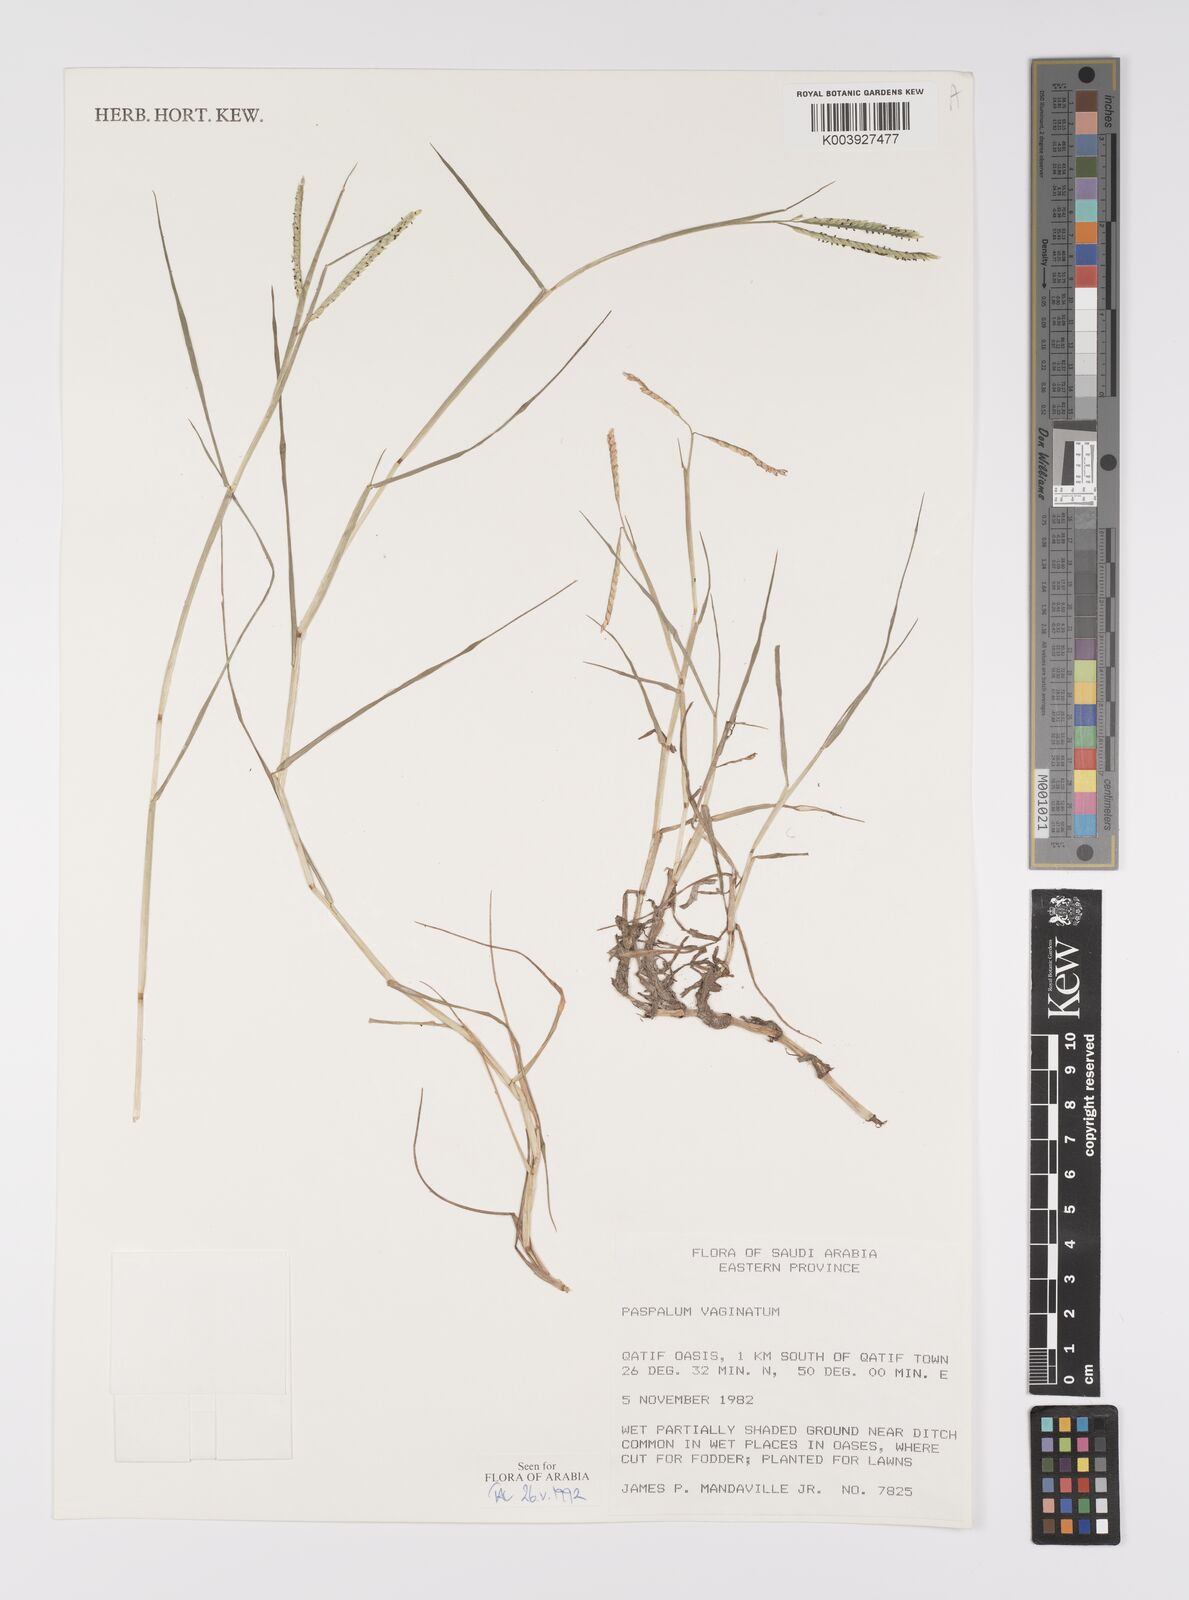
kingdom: Plantae
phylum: Tracheophyta
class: Liliopsida
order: Poales
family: Poaceae
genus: Paspalum
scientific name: Paspalum vaginatum
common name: Seashore paspalum
